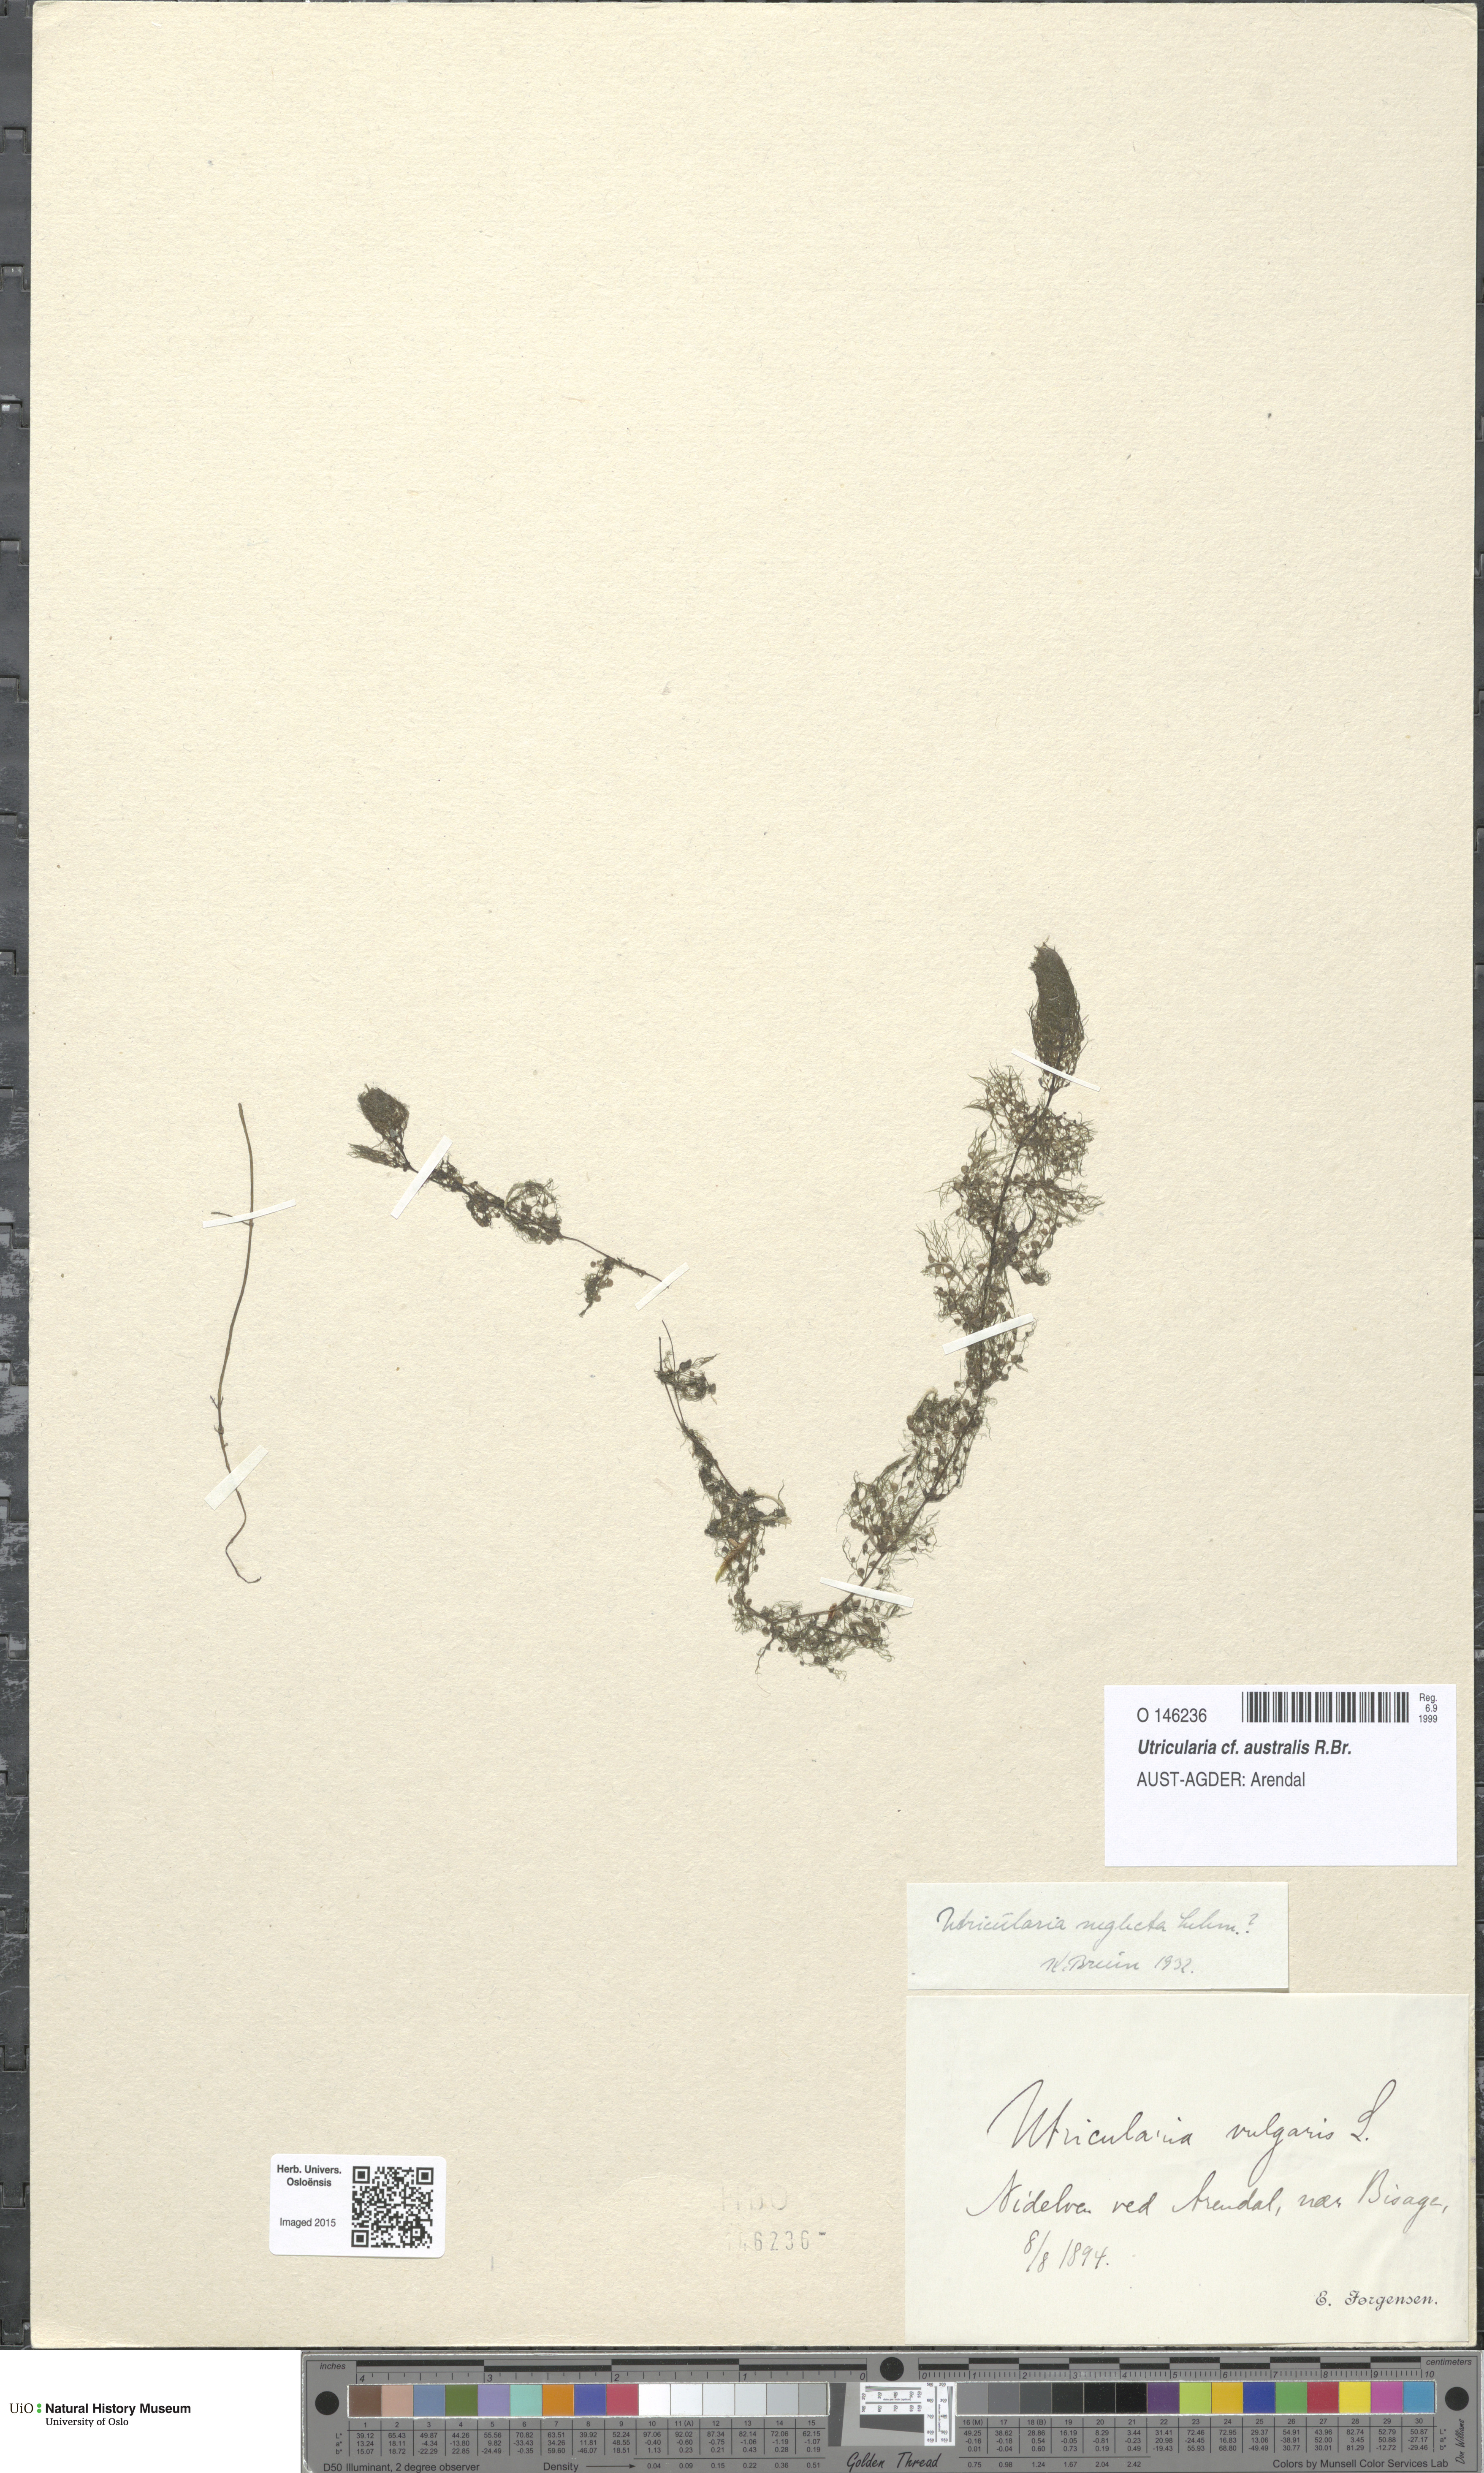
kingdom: Plantae
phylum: Tracheophyta
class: Magnoliopsida
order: Lamiales
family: Lentibulariaceae
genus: Utricularia
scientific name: Utricularia australis
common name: Bladderwort
